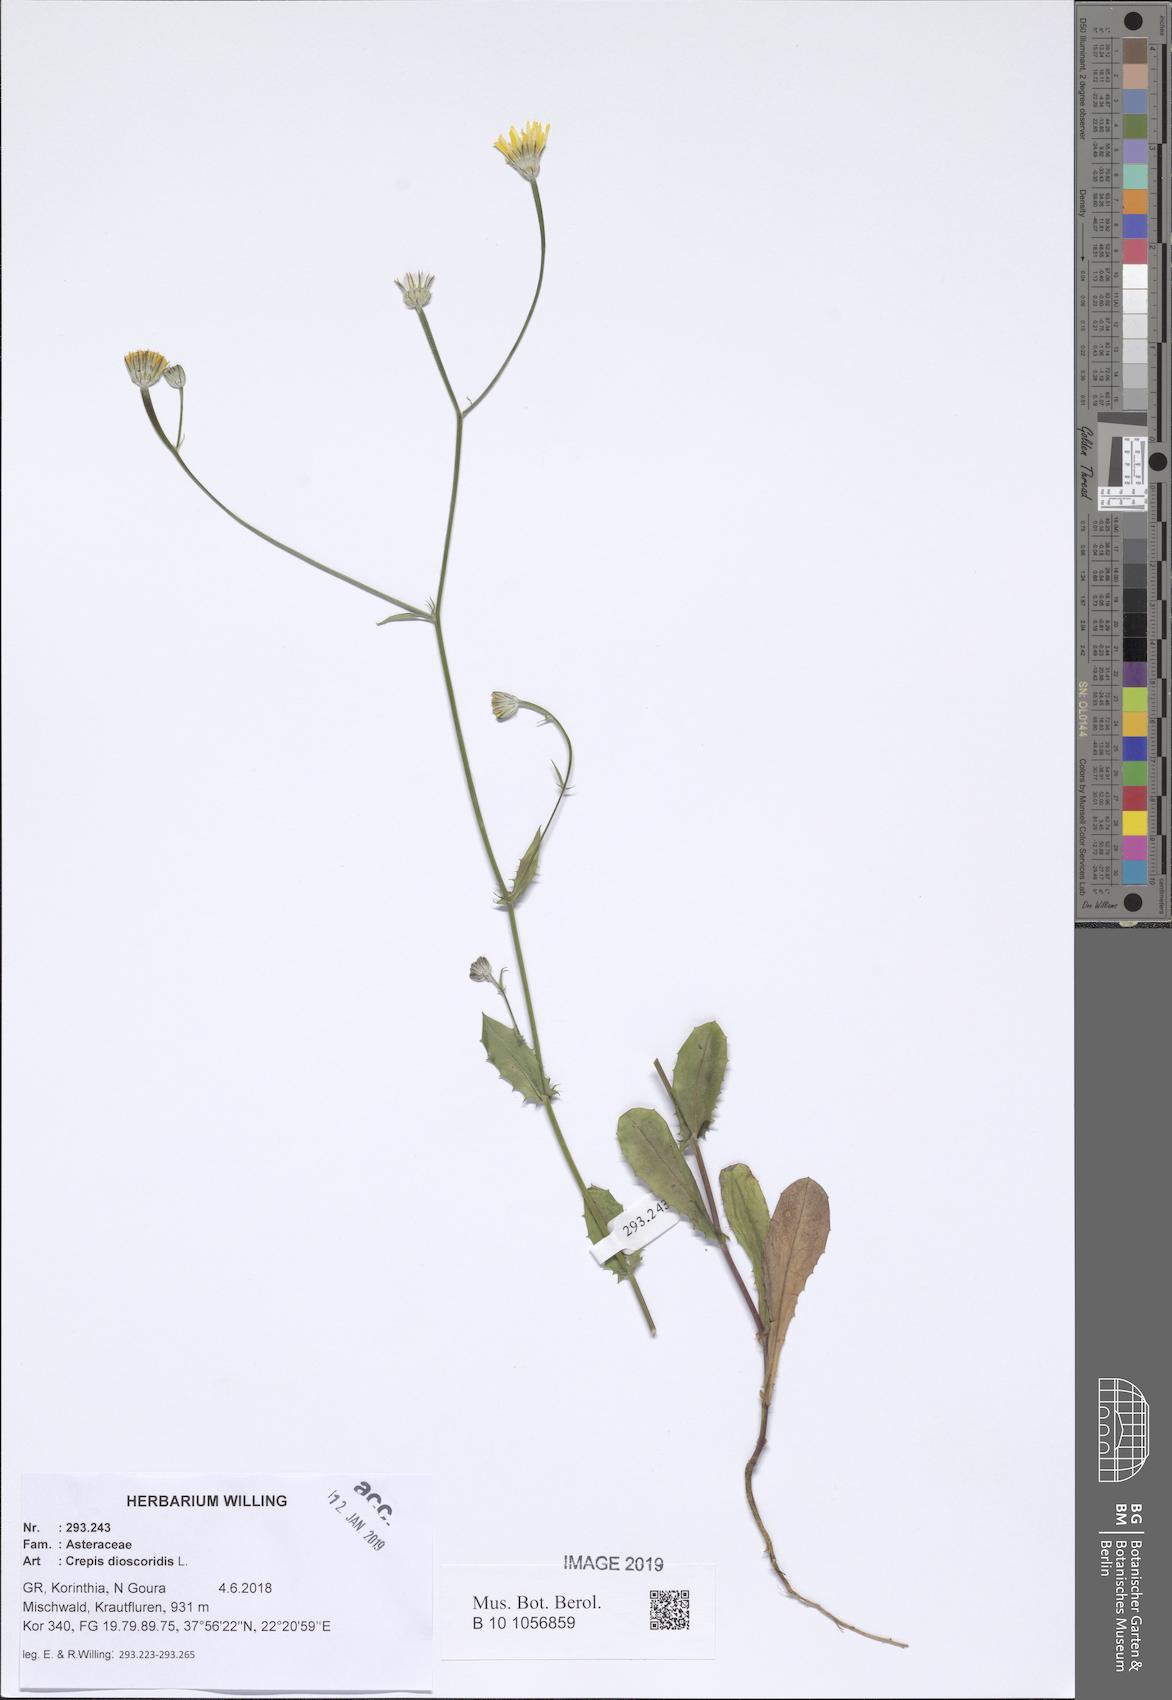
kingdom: Plantae
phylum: Tracheophyta
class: Magnoliopsida
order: Asterales
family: Asteraceae
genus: Crepis
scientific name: Crepis dioscoridis
